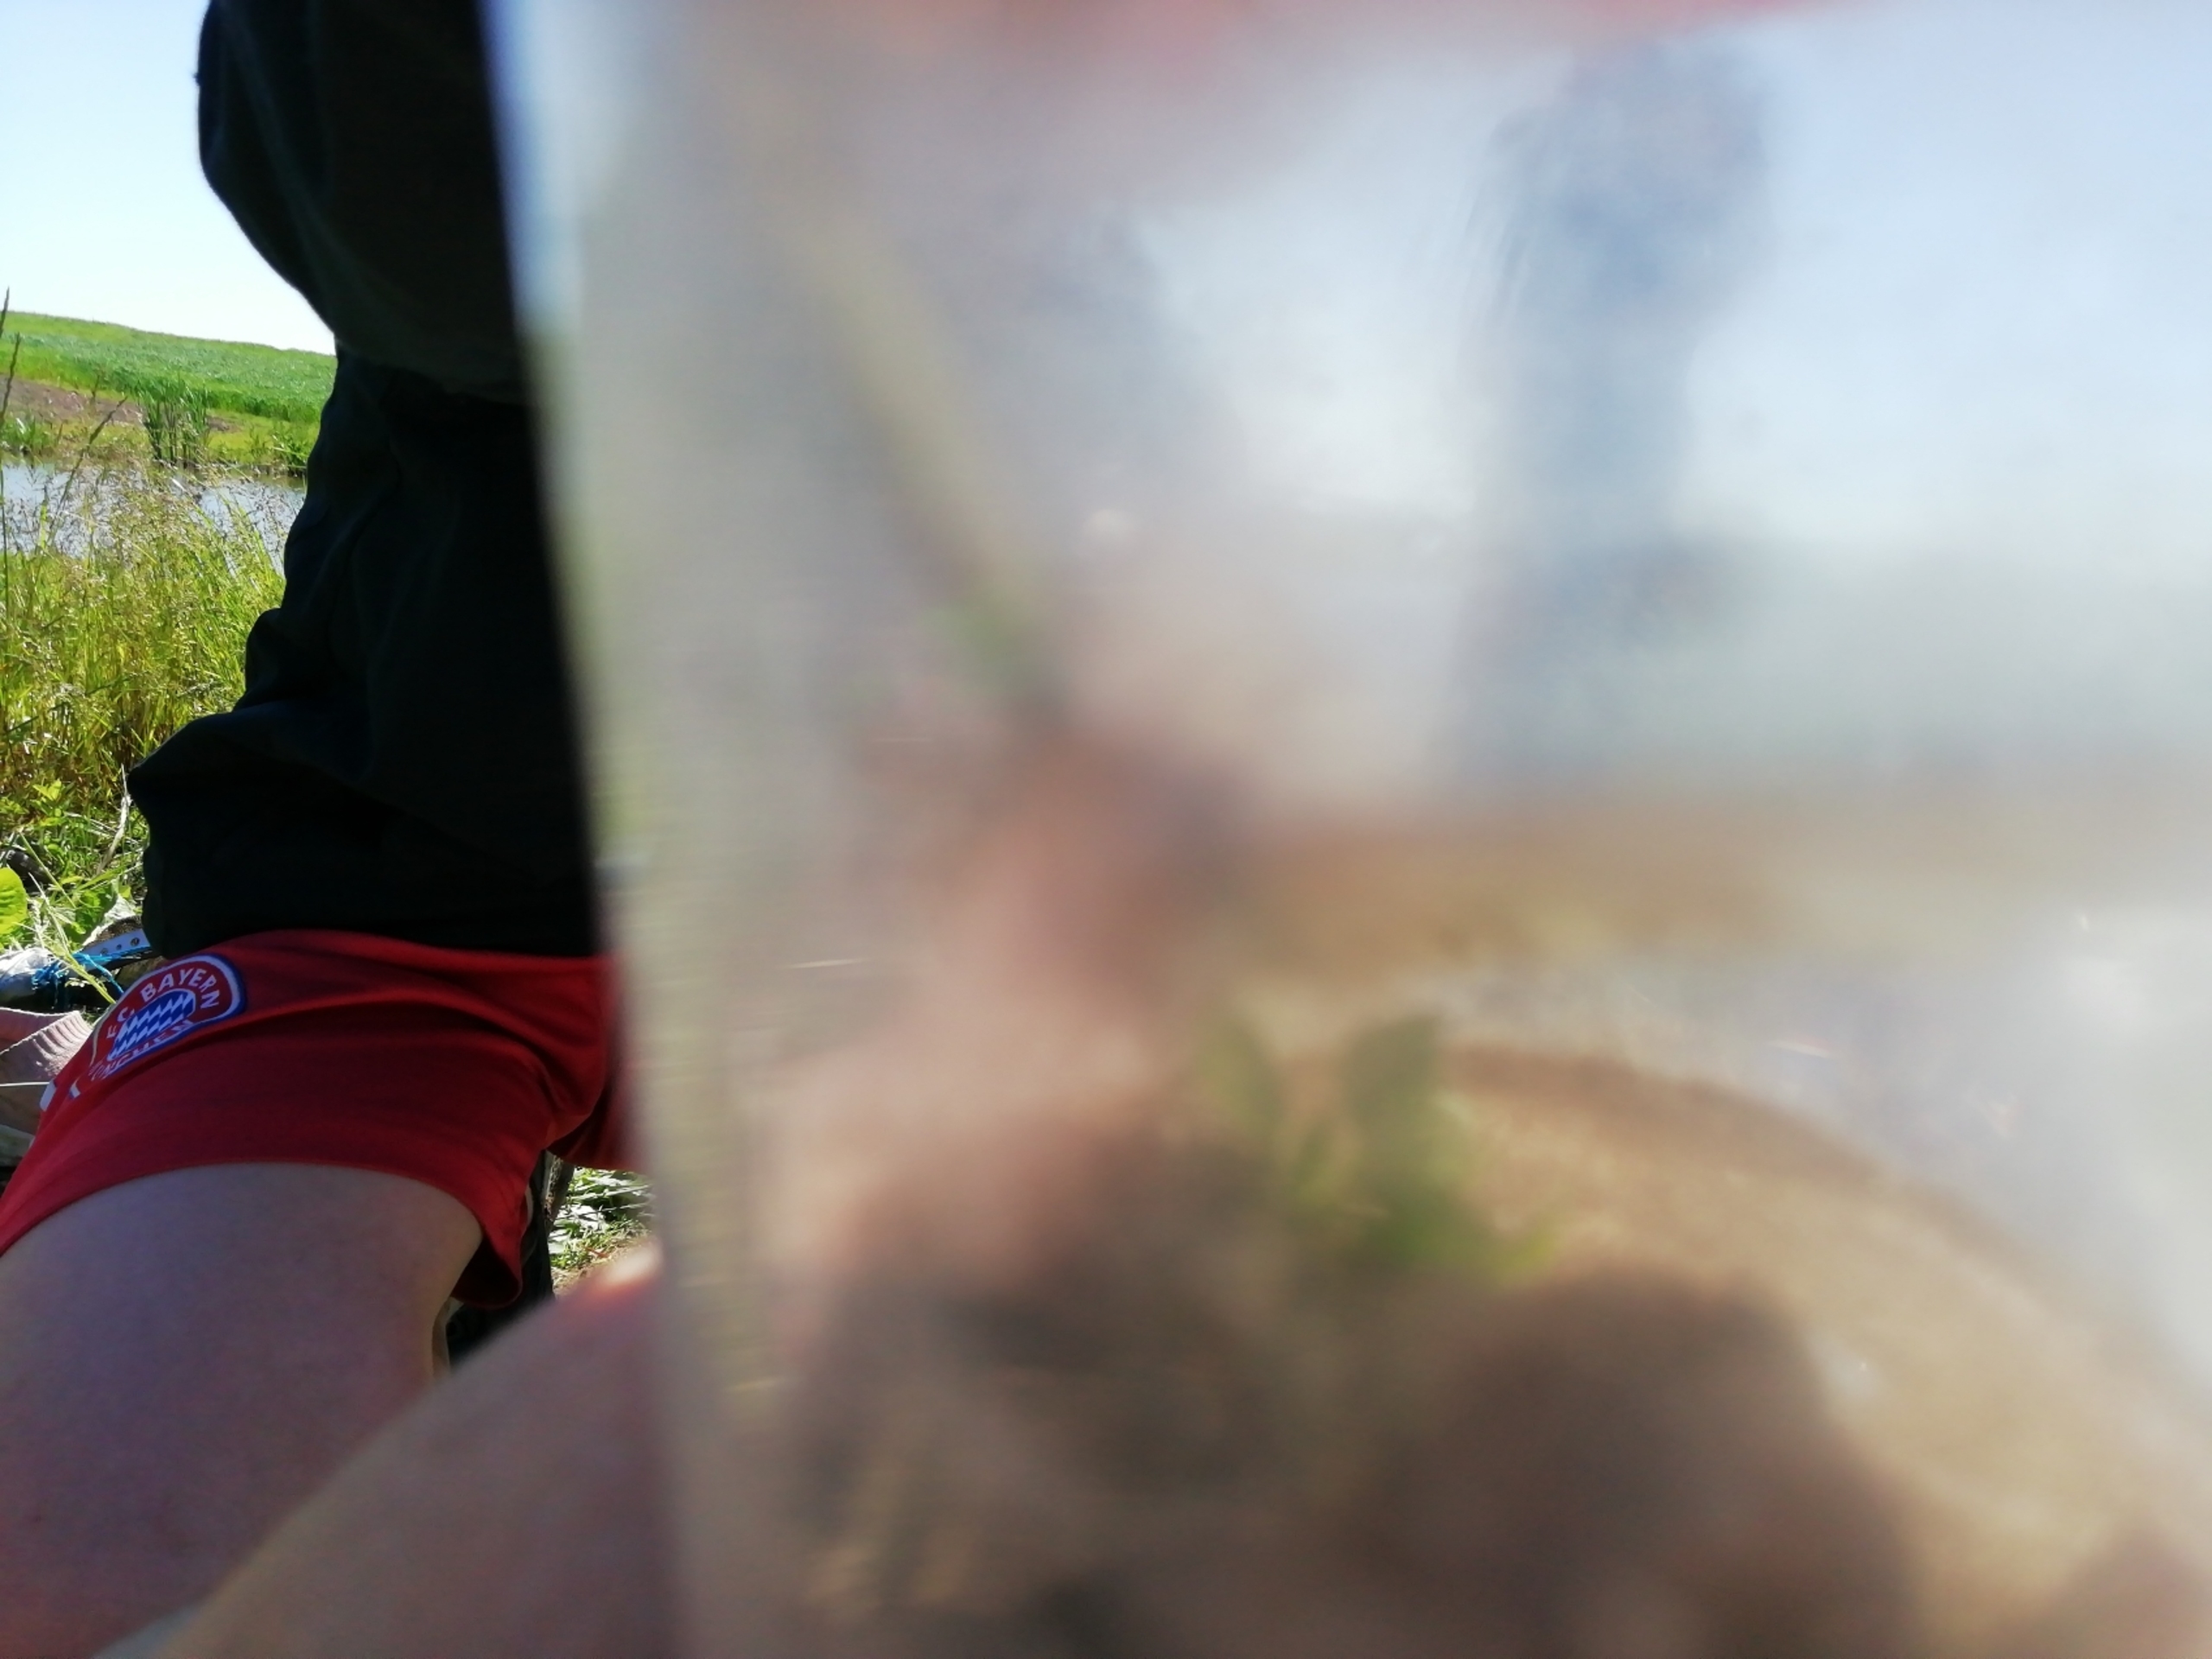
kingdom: Animalia
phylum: Arthropoda
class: Insecta
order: Lepidoptera
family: Pieridae
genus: Pieris
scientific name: Pieris napi
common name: Grønåret kålsommerfugl
